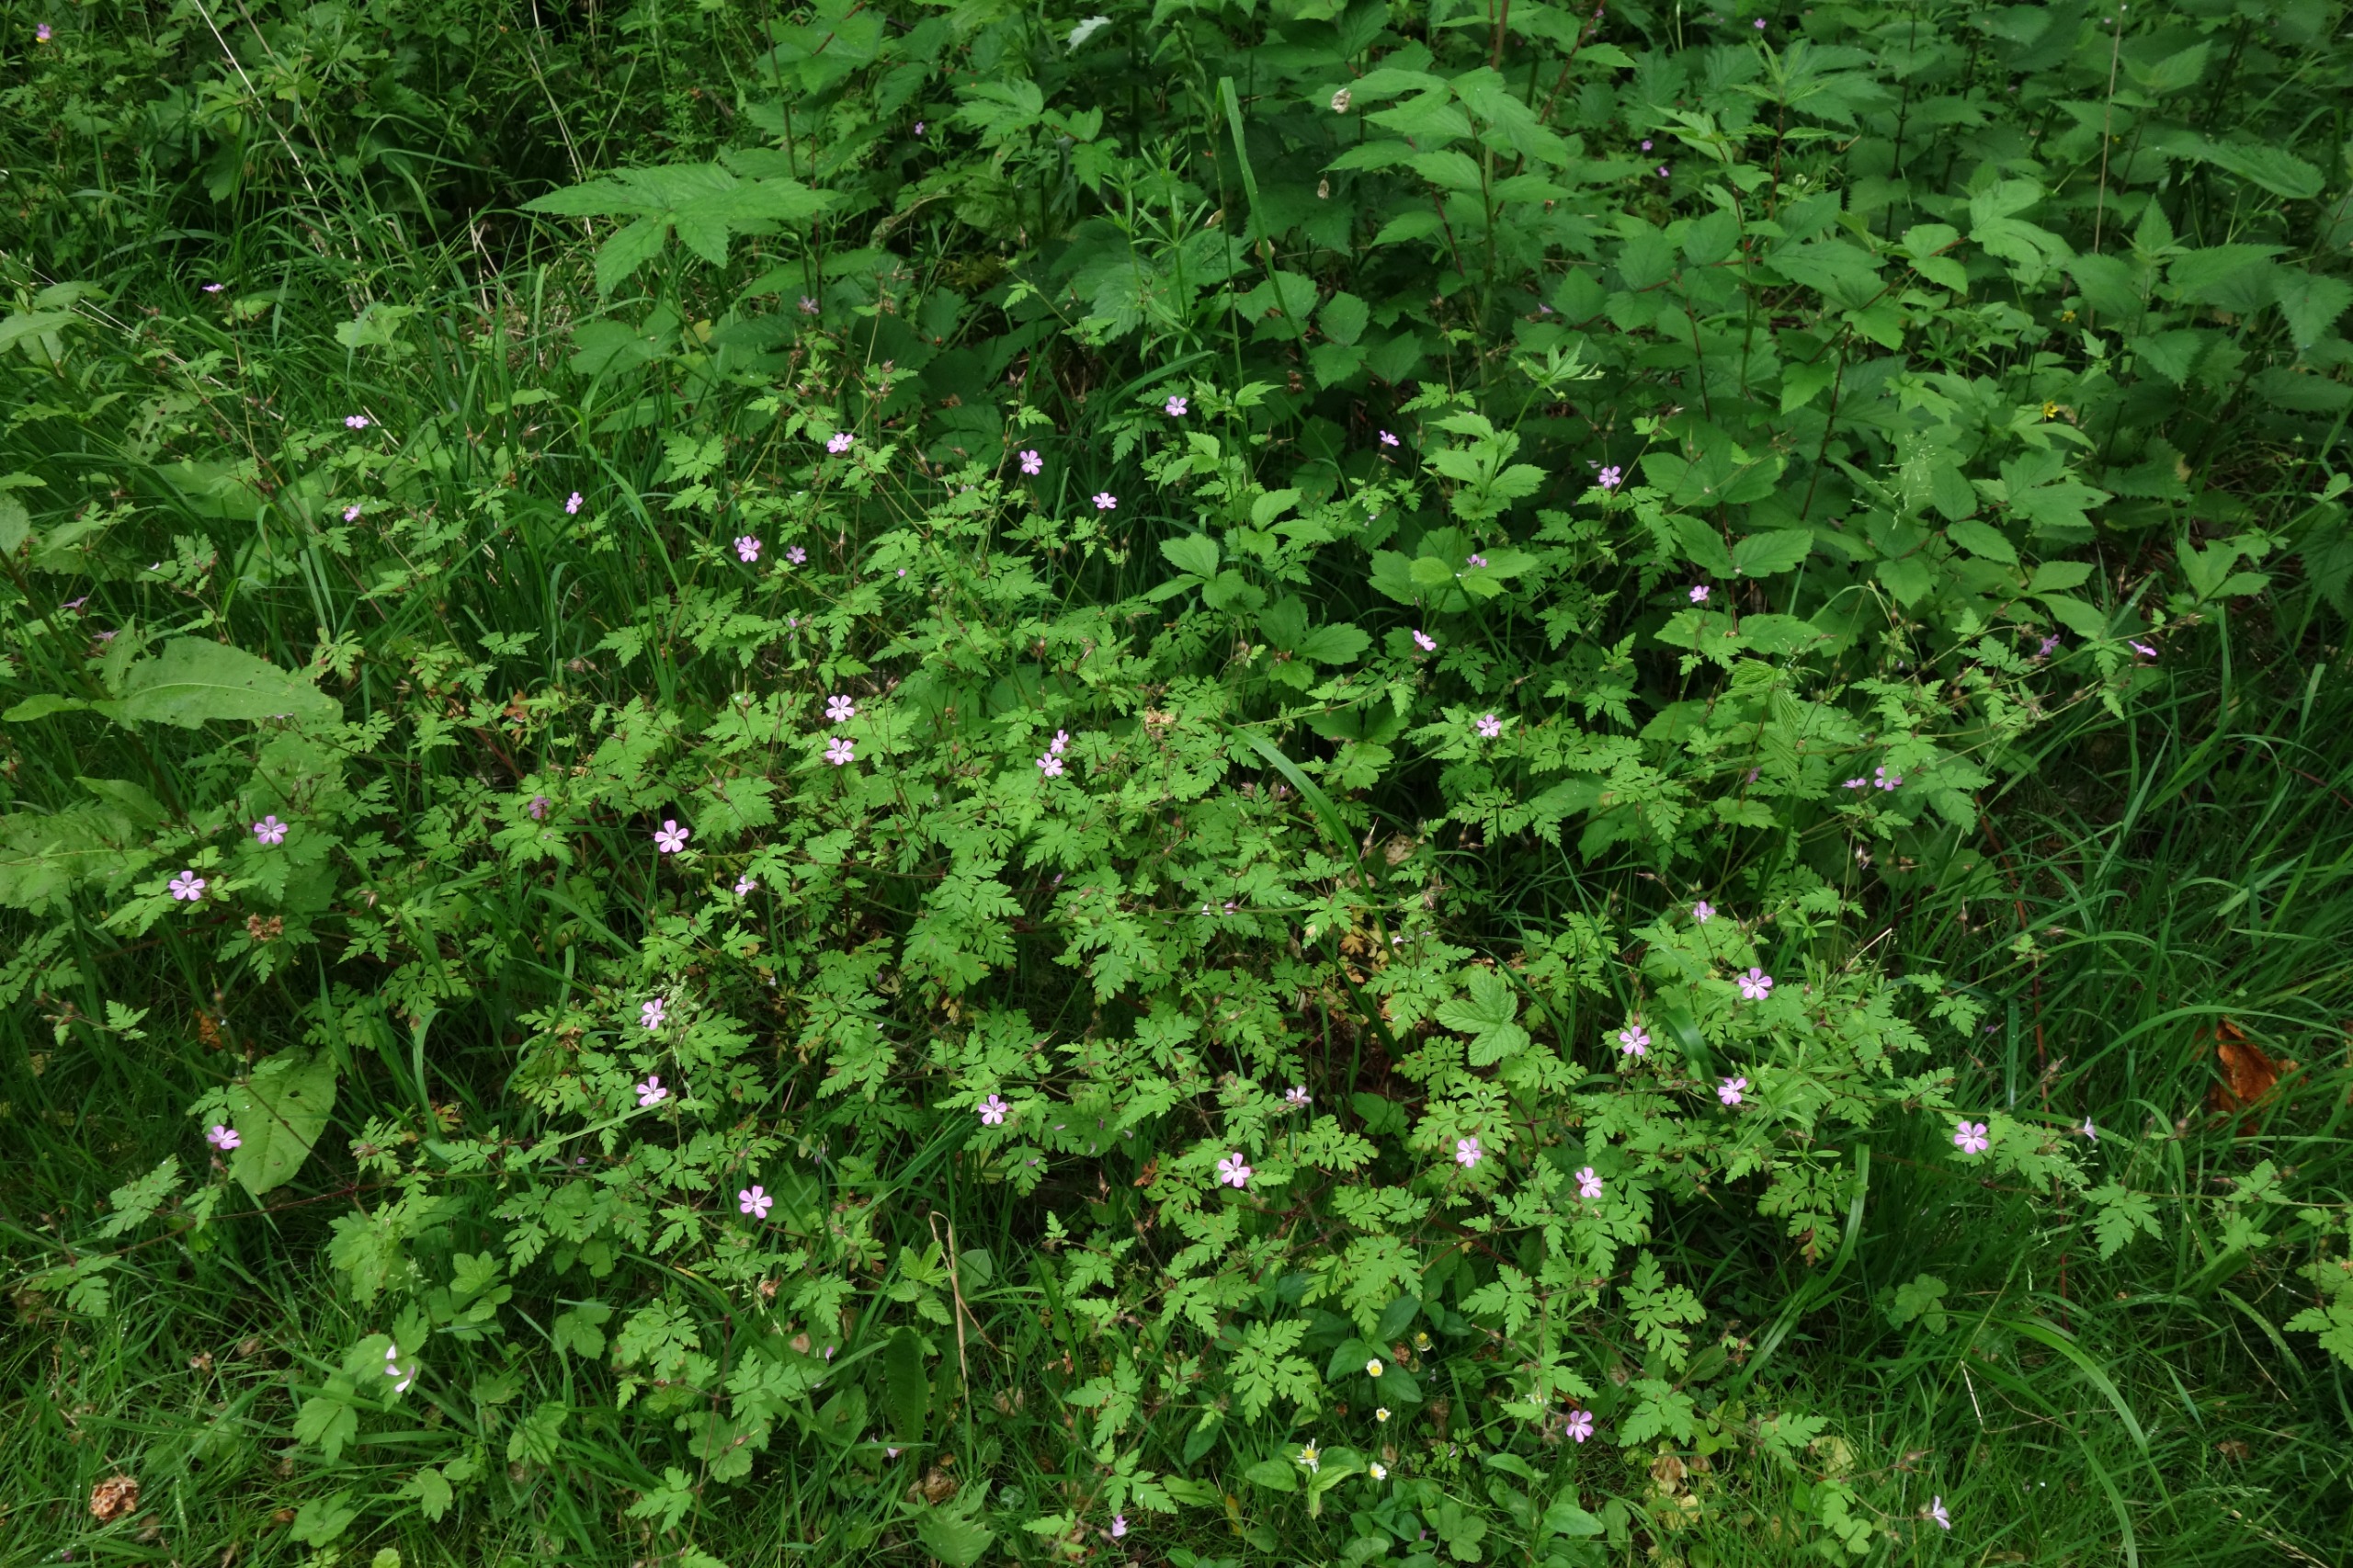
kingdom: Plantae
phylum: Tracheophyta
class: Magnoliopsida
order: Geraniales
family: Geraniaceae
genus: Geranium
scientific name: Geranium robertianum
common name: Stinkende storkenæb
